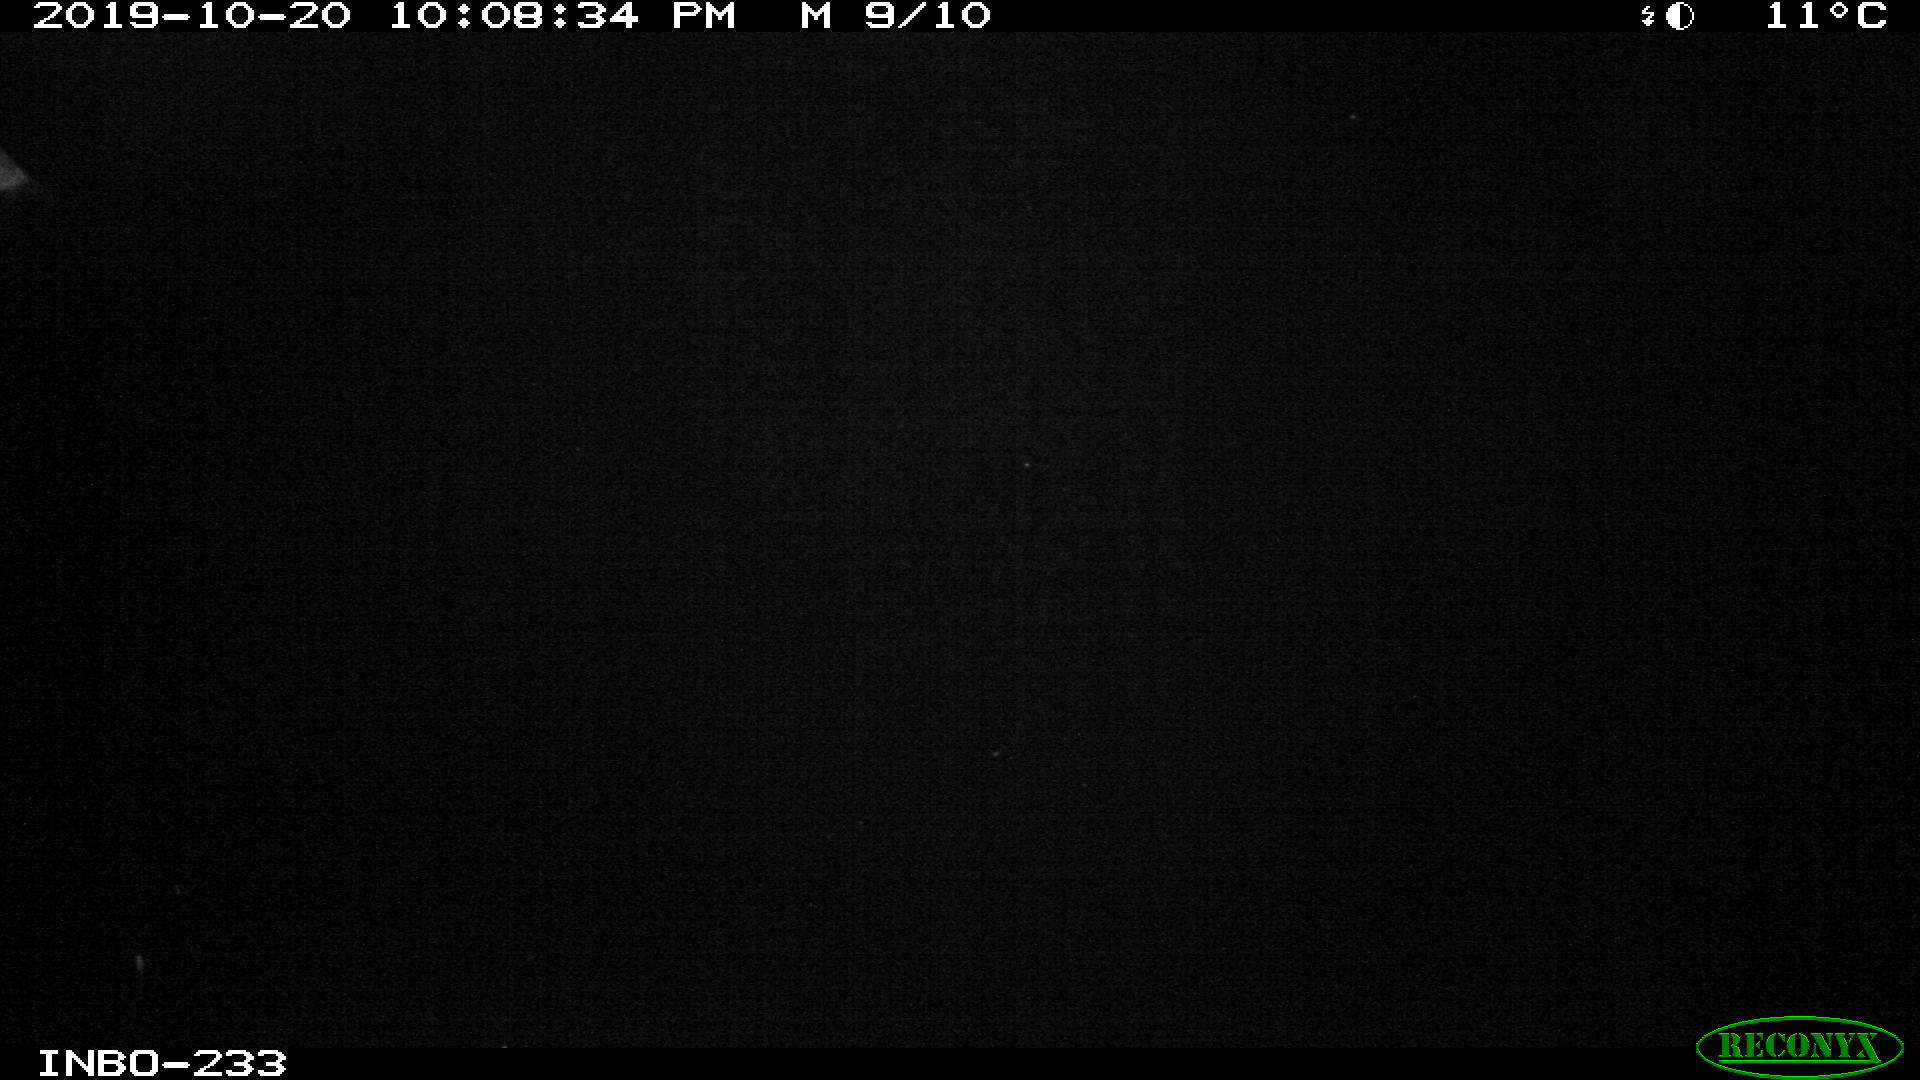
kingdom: Animalia
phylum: Chordata
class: Aves
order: Anseriformes
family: Anatidae
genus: Anas
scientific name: Anas platyrhynchos
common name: Mallard
